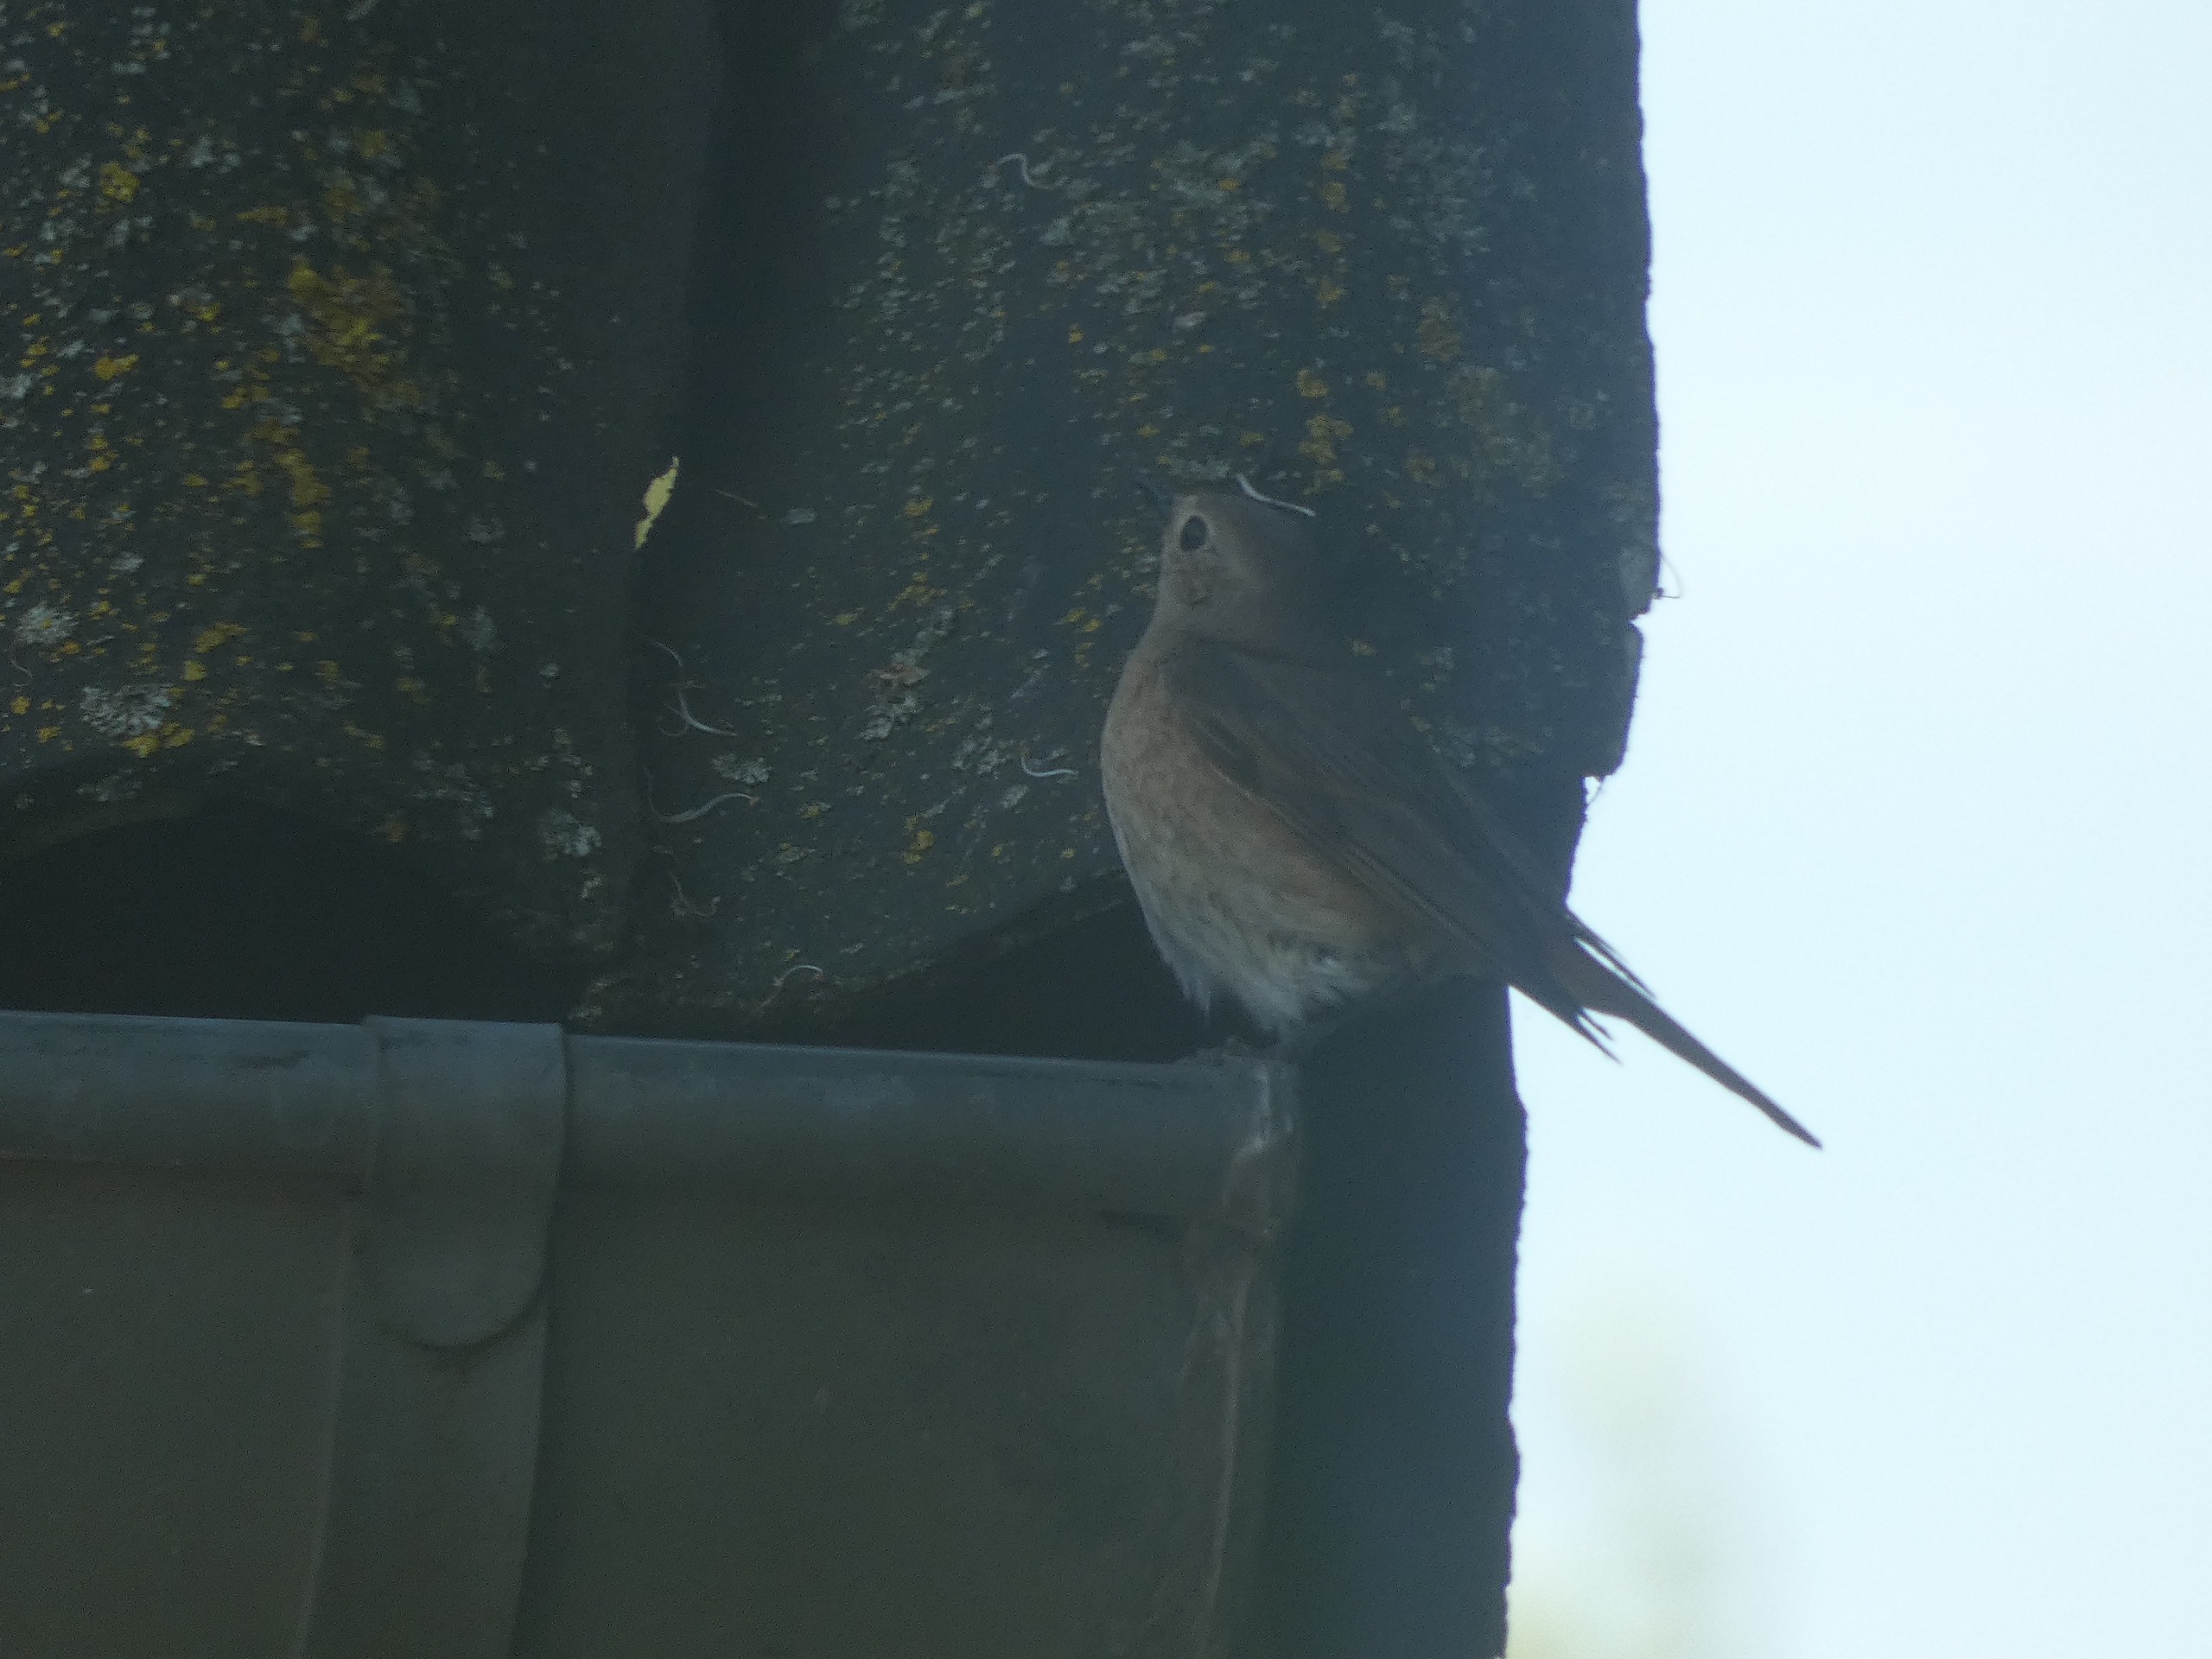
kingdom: Animalia
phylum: Chordata
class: Aves
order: Passeriformes
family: Muscicapidae
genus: Phoenicurus
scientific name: Phoenicurus phoenicurus
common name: Rødstjert
